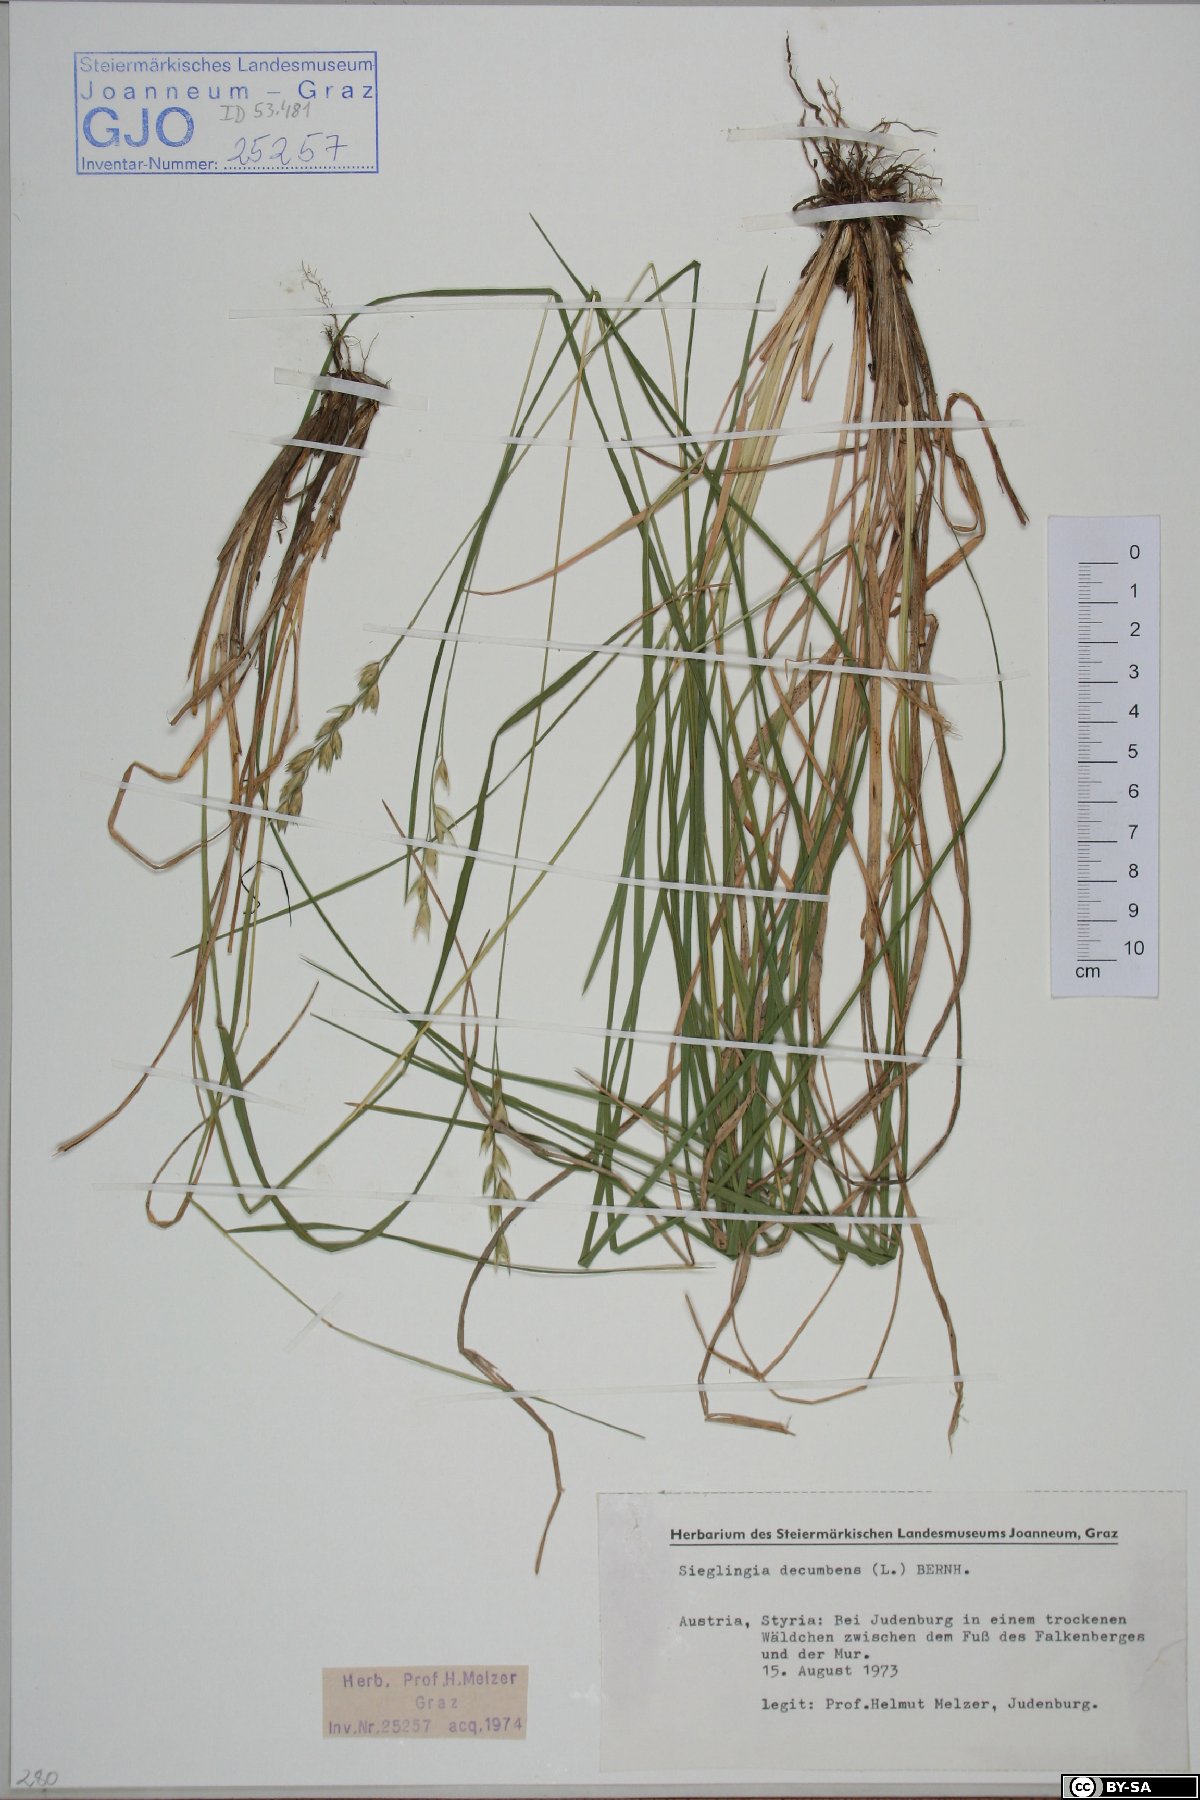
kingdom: Plantae
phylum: Tracheophyta
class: Liliopsida
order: Poales
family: Poaceae
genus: Danthonia
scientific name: Danthonia decumbens
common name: Common heathgrass
